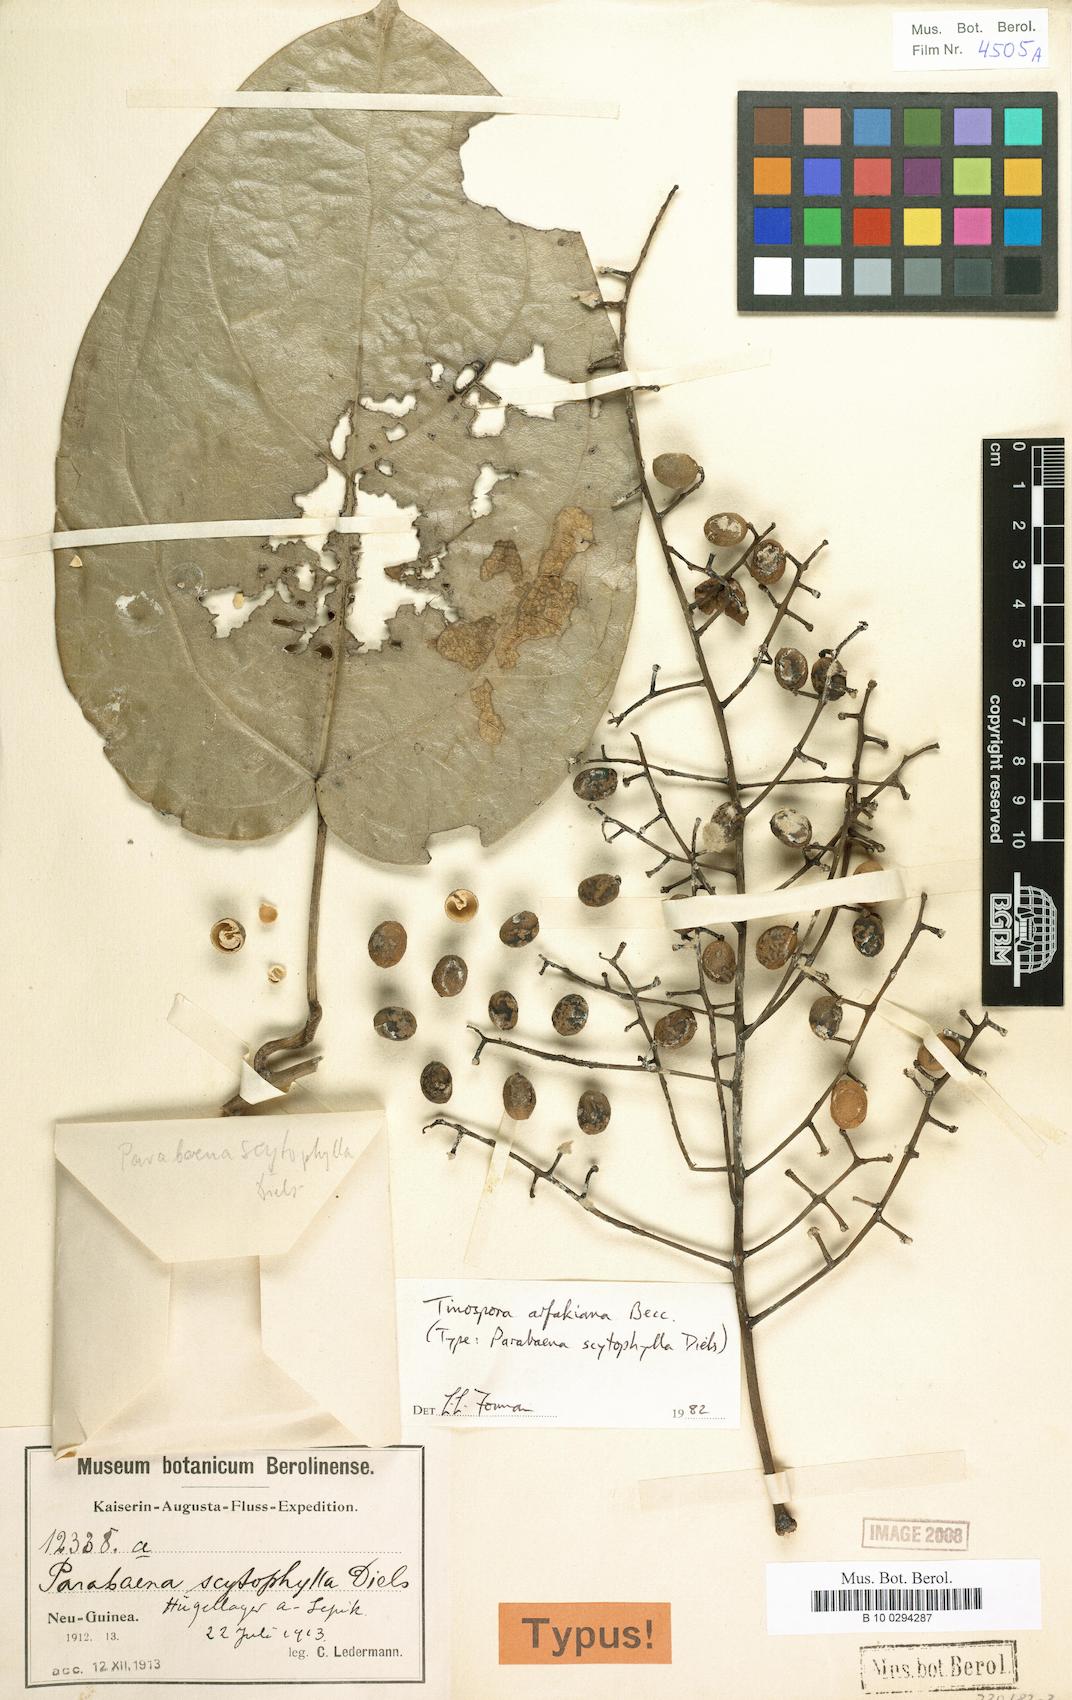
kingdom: Plantae
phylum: Tracheophyta
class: Magnoliopsida
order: Ranunculales
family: Menispermaceae
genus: Tinospora
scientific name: Tinospora arfakiana
